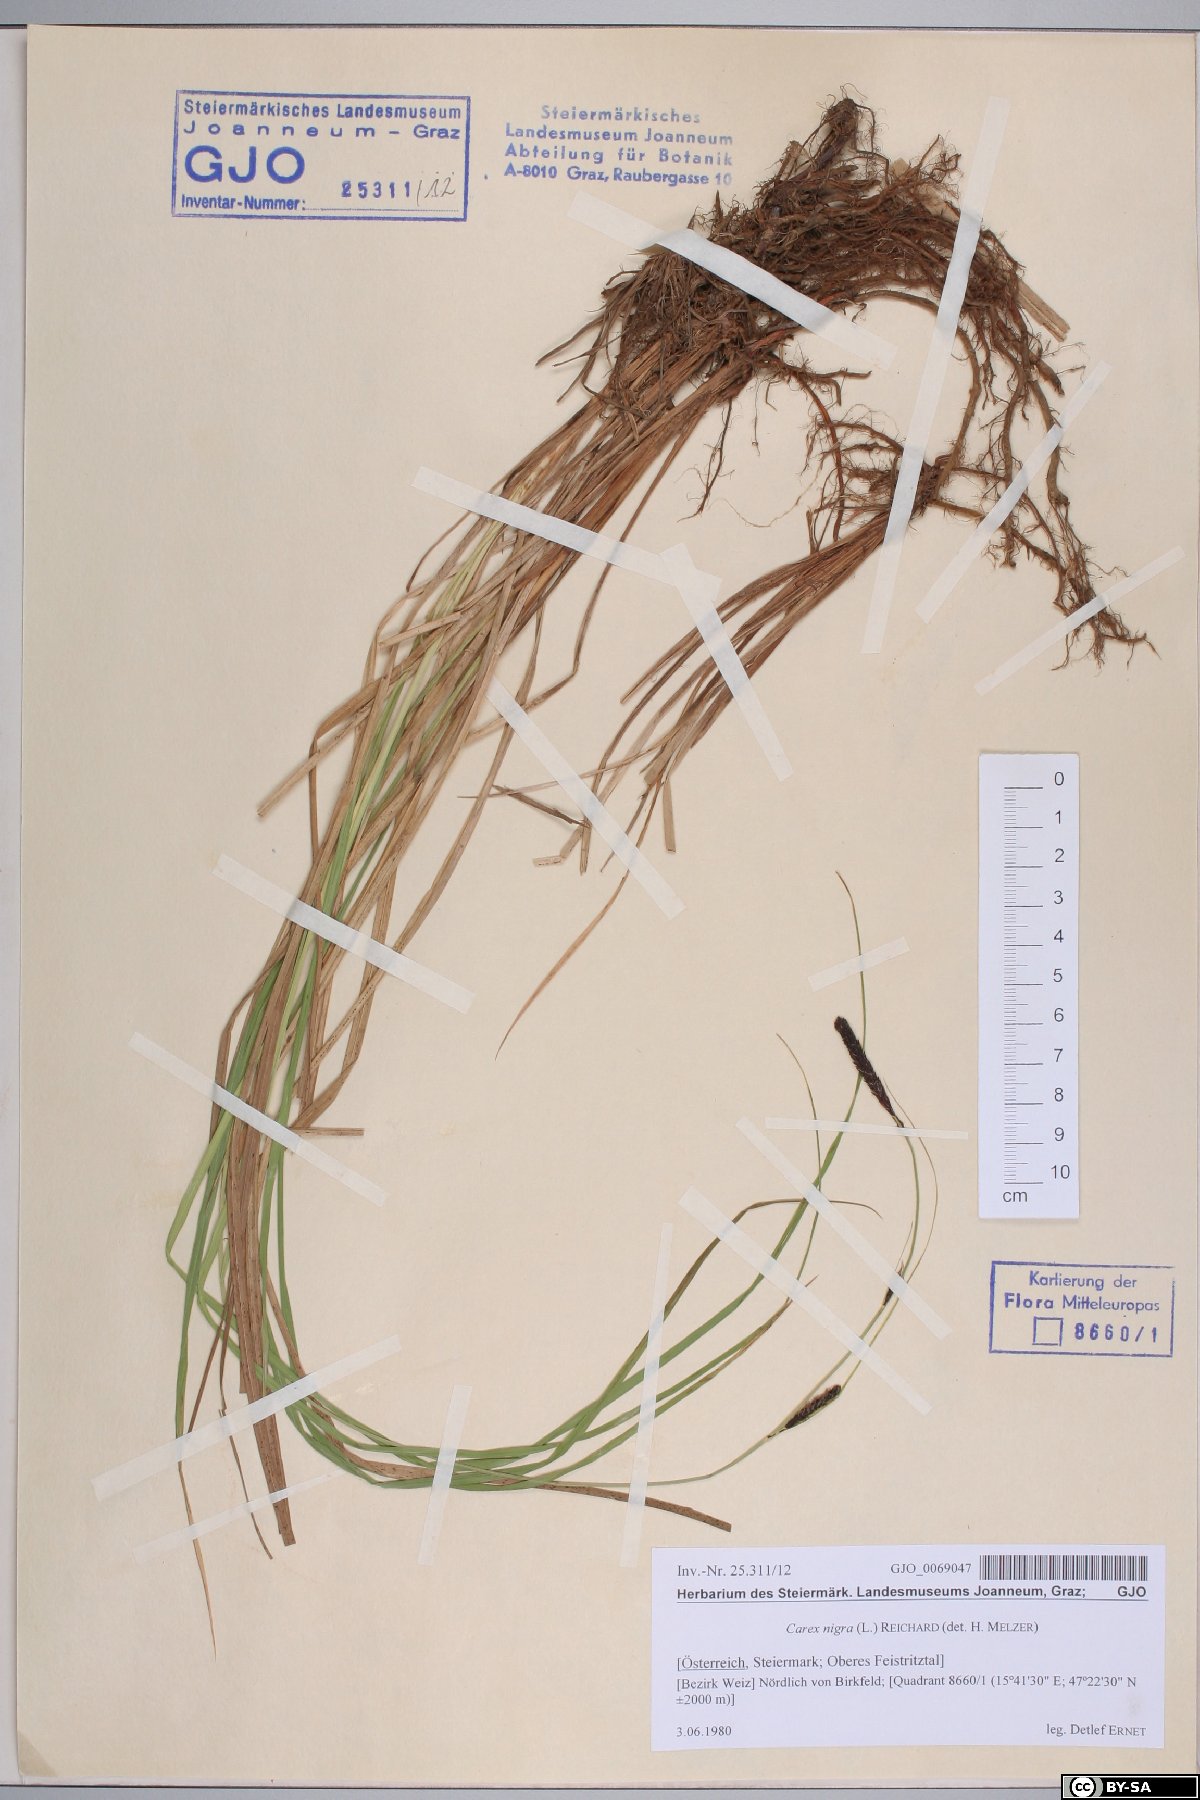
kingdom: Plantae
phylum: Tracheophyta
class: Liliopsida
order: Poales
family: Cyperaceae
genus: Carex
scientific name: Carex nigra
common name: Common sedge
